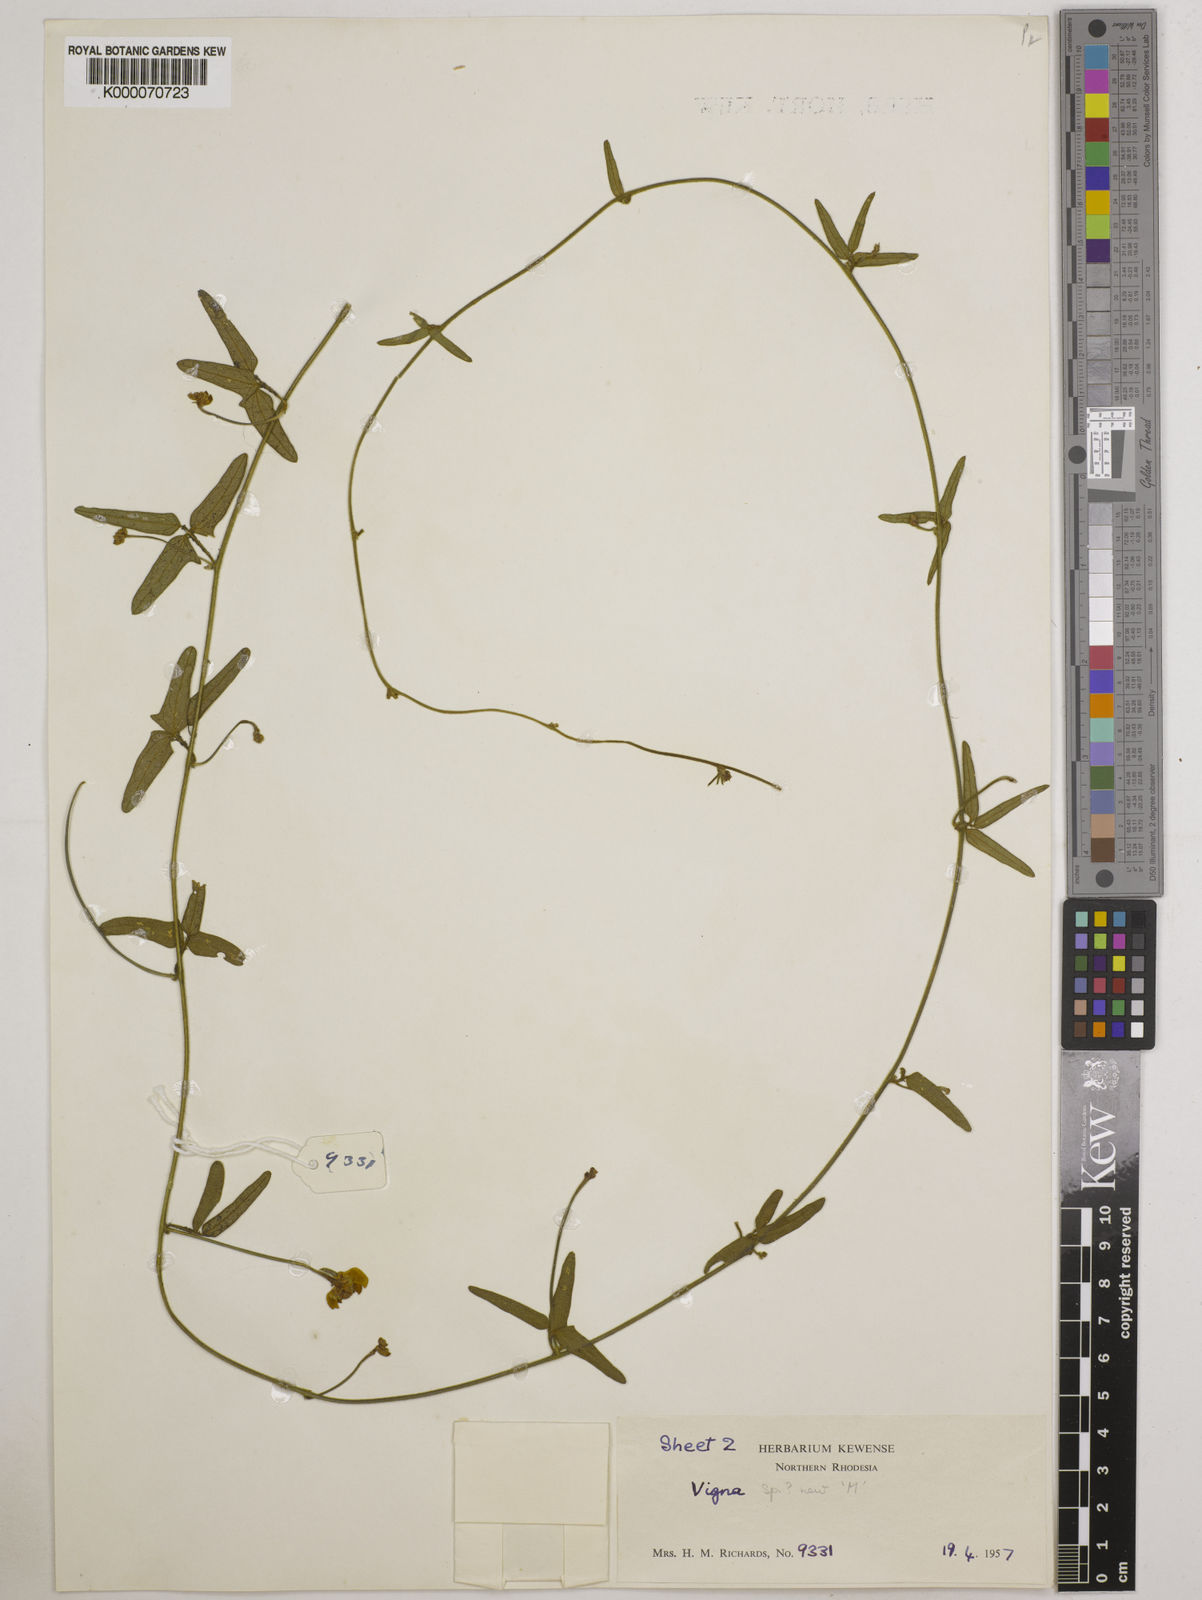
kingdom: Plantae
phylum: Tracheophyta
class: Magnoliopsida
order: Fabales
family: Fabaceae
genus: Vigna
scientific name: Vigna comosa
